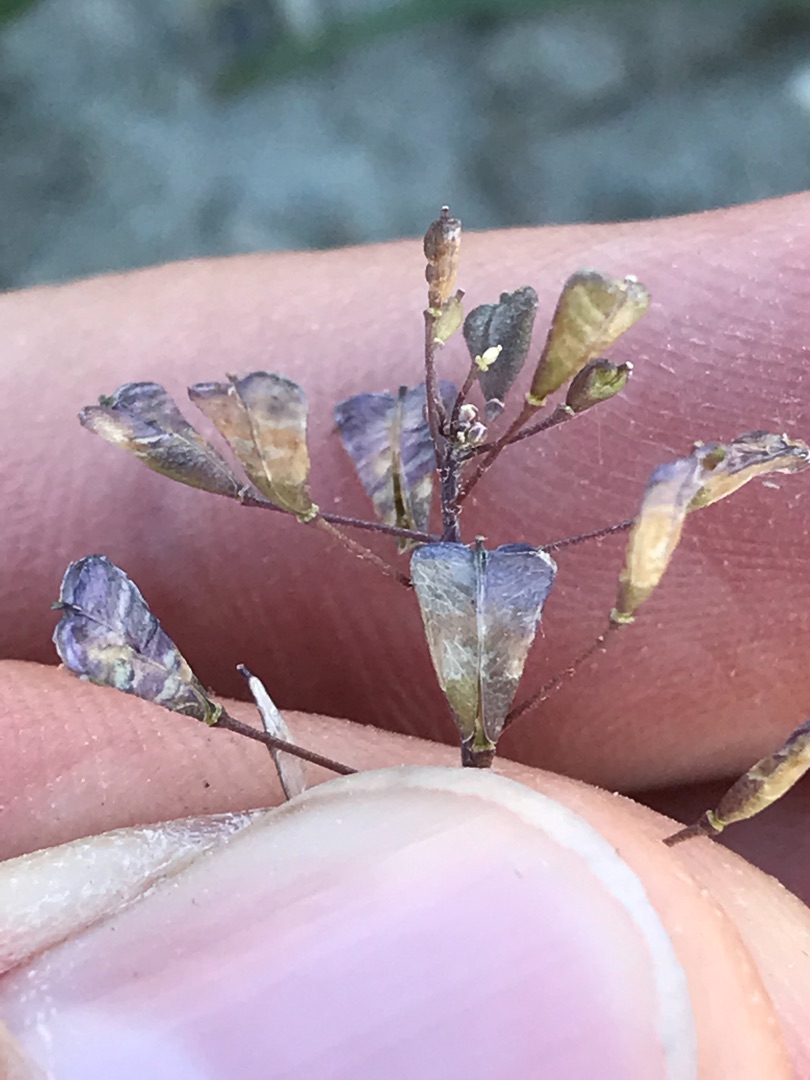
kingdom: Plantae
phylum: Tracheophyta
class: Magnoliopsida
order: Brassicales
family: Brassicaceae
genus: Capsella
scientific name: Capsella bursa-pastoris
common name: Hyrdetaske
